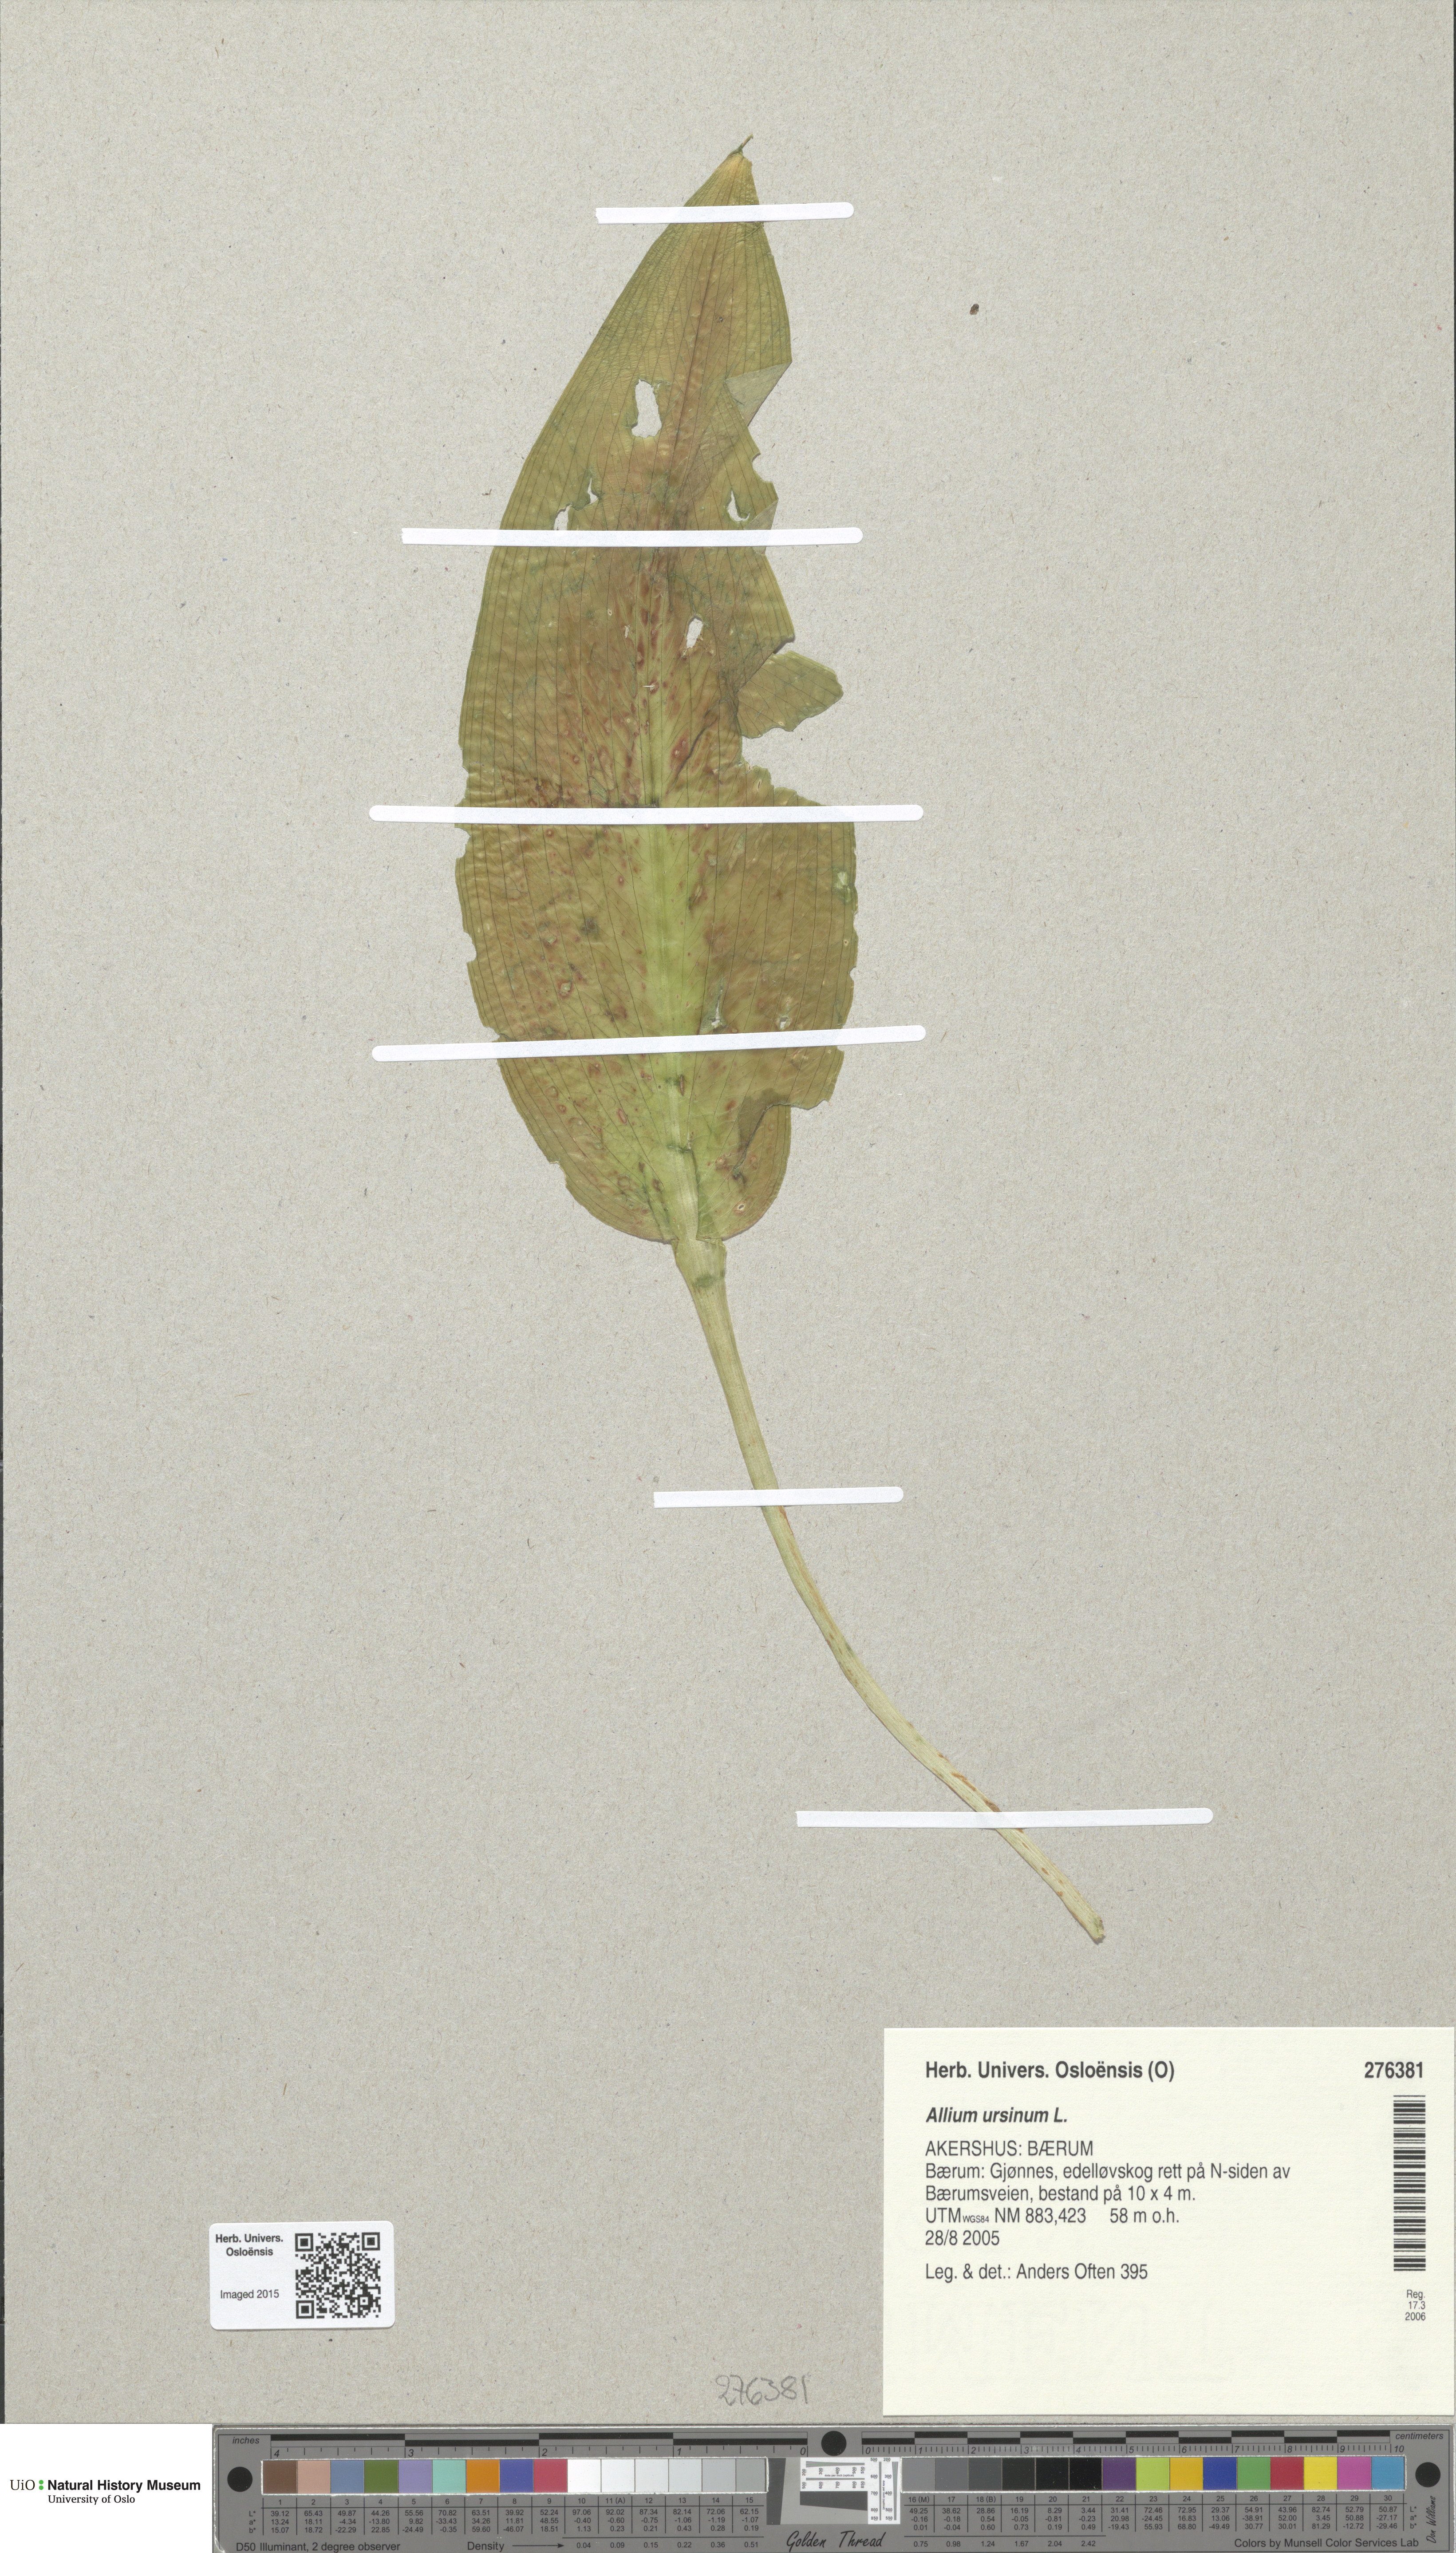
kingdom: Plantae
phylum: Tracheophyta
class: Liliopsida
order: Asparagales
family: Amaryllidaceae
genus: Allium
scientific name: Allium ursinum
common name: Ramsons
